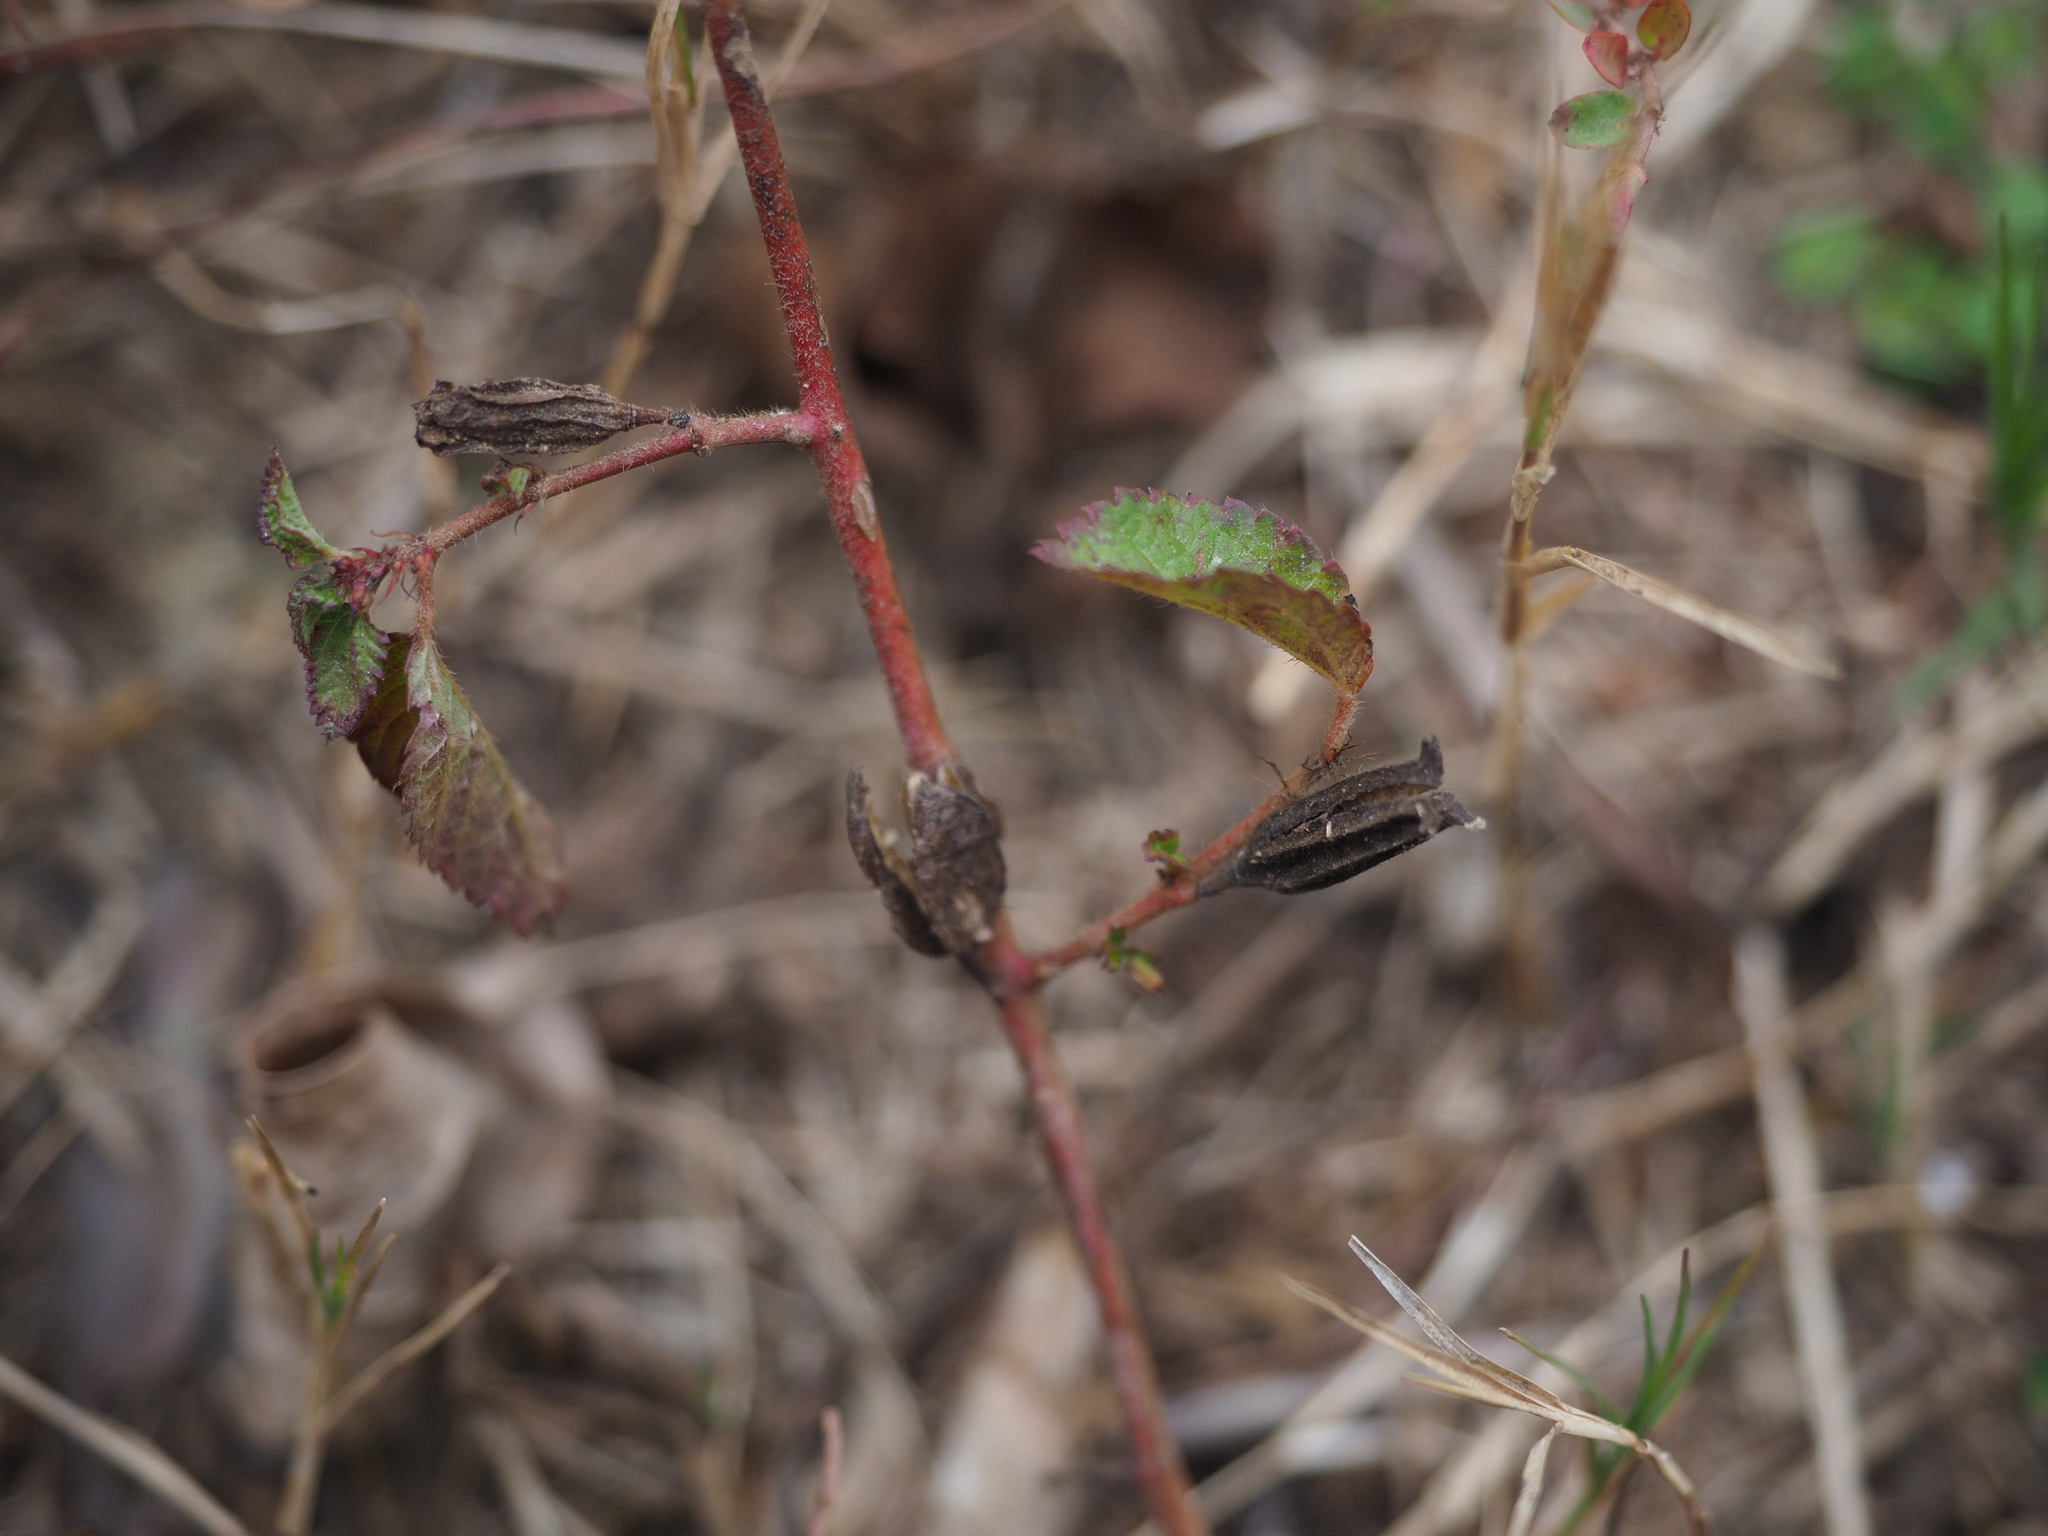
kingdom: Plantae
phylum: Tracheophyta
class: Magnoliopsida
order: Malvales
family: Malvaceae
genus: Corchorus
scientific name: Corchorus aestuans
